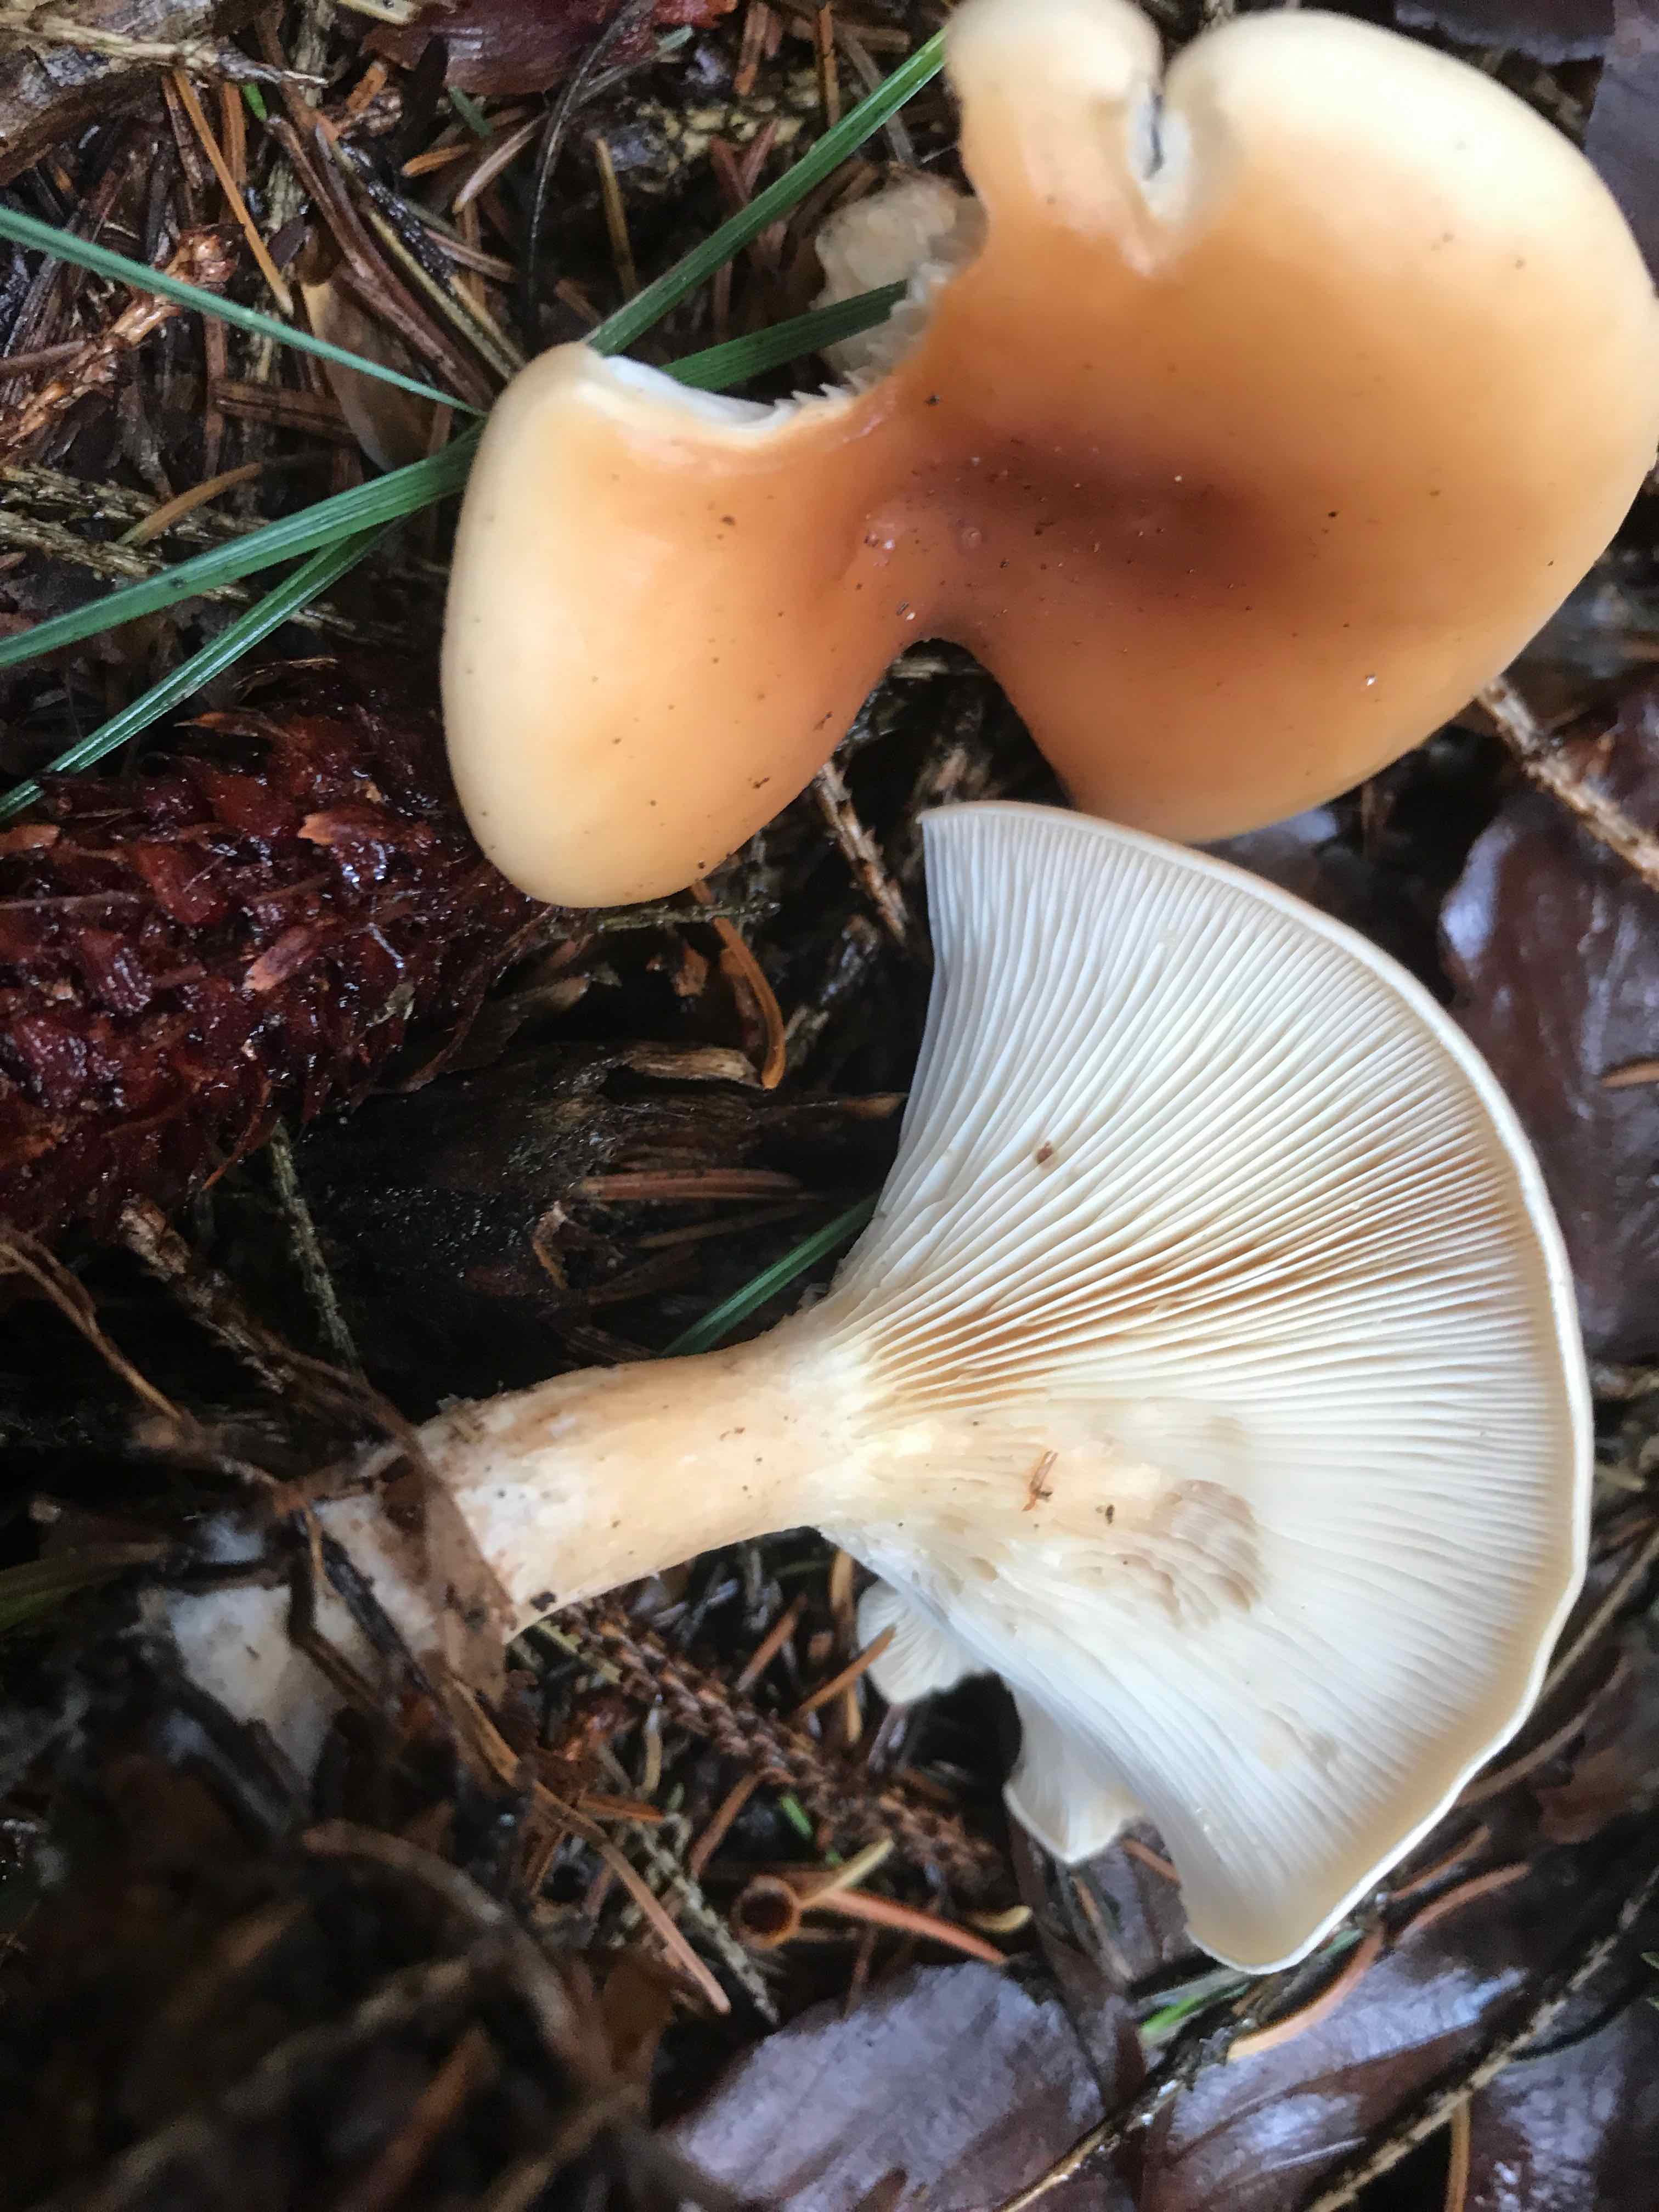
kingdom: Fungi
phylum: Basidiomycota
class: Agaricomycetes
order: Agaricales
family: Tricholomataceae
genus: Paralepista
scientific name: Paralepista flaccida
